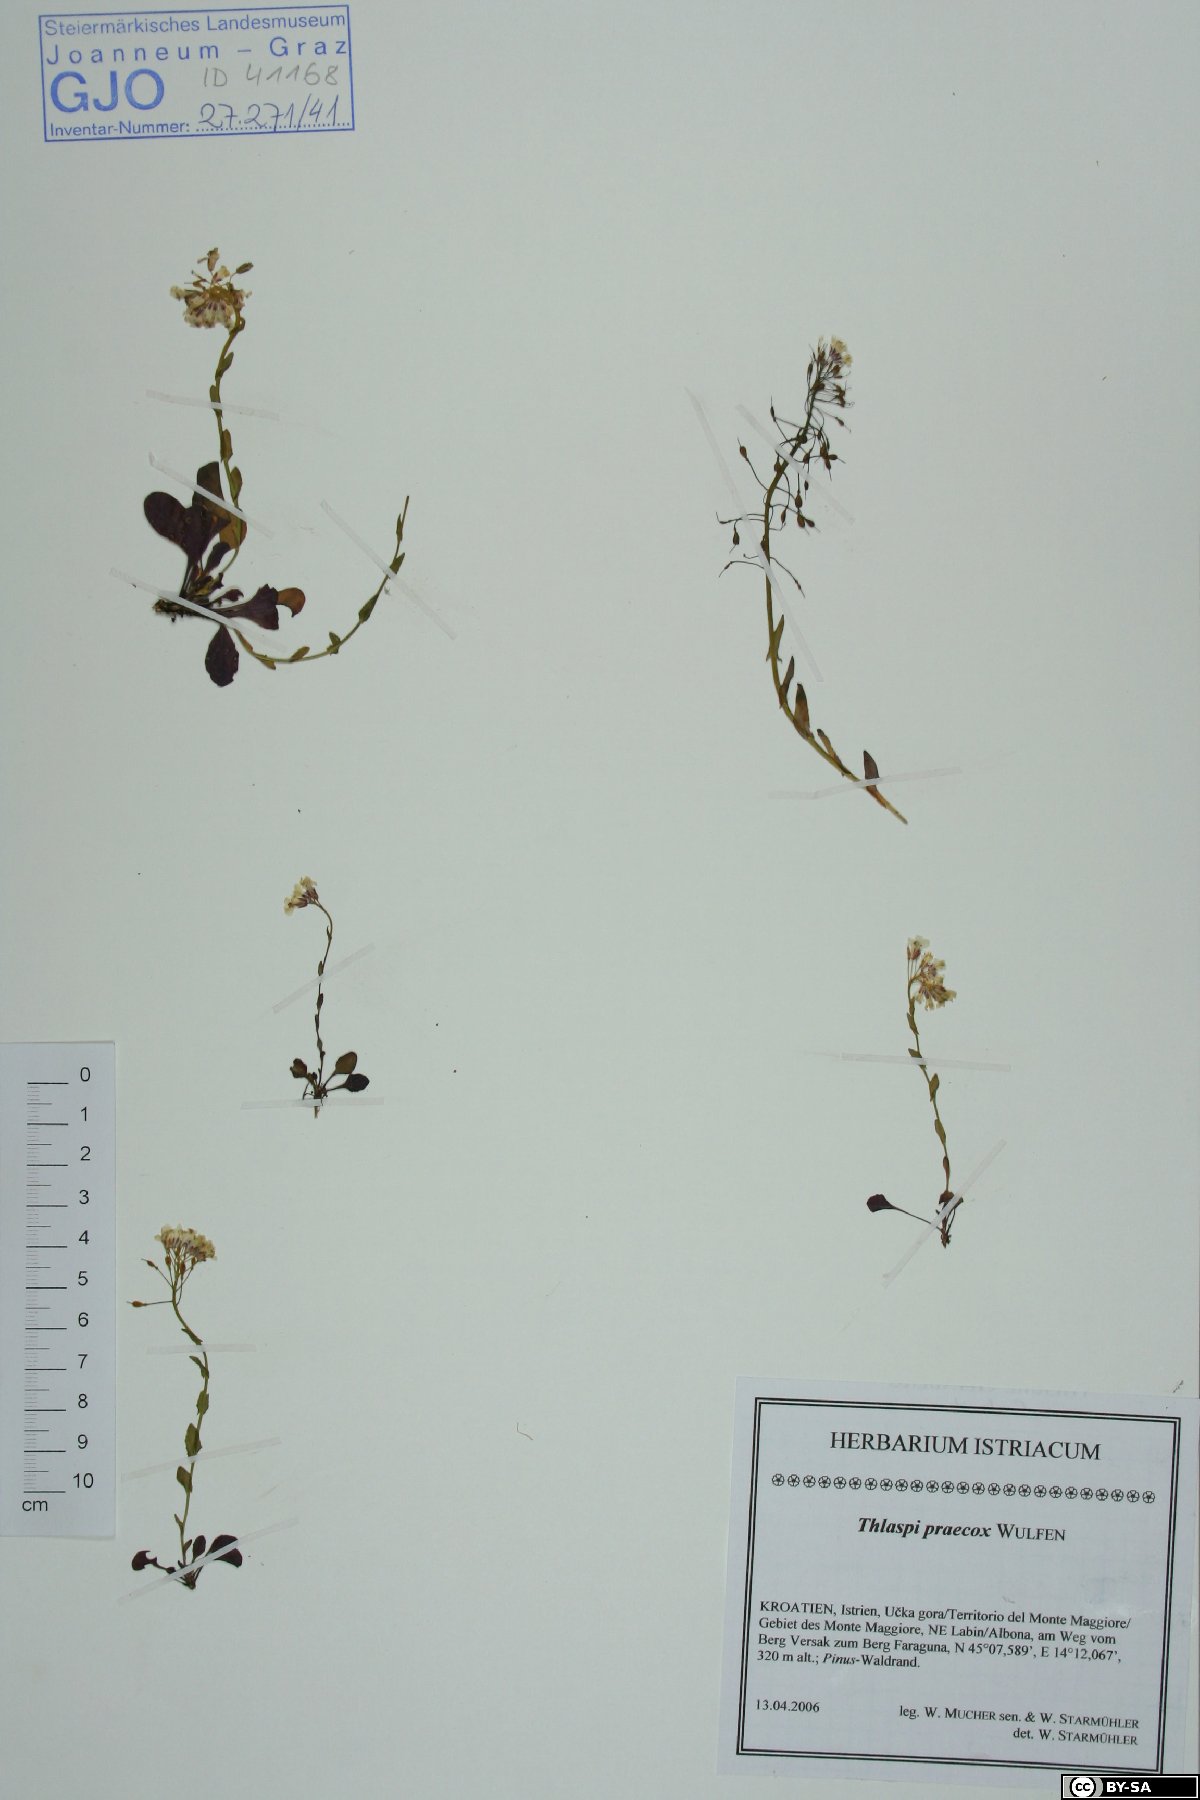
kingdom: Plantae
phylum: Tracheophyta
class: Magnoliopsida
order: Brassicales
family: Brassicaceae
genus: Noccaea
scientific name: Noccaea praecox
